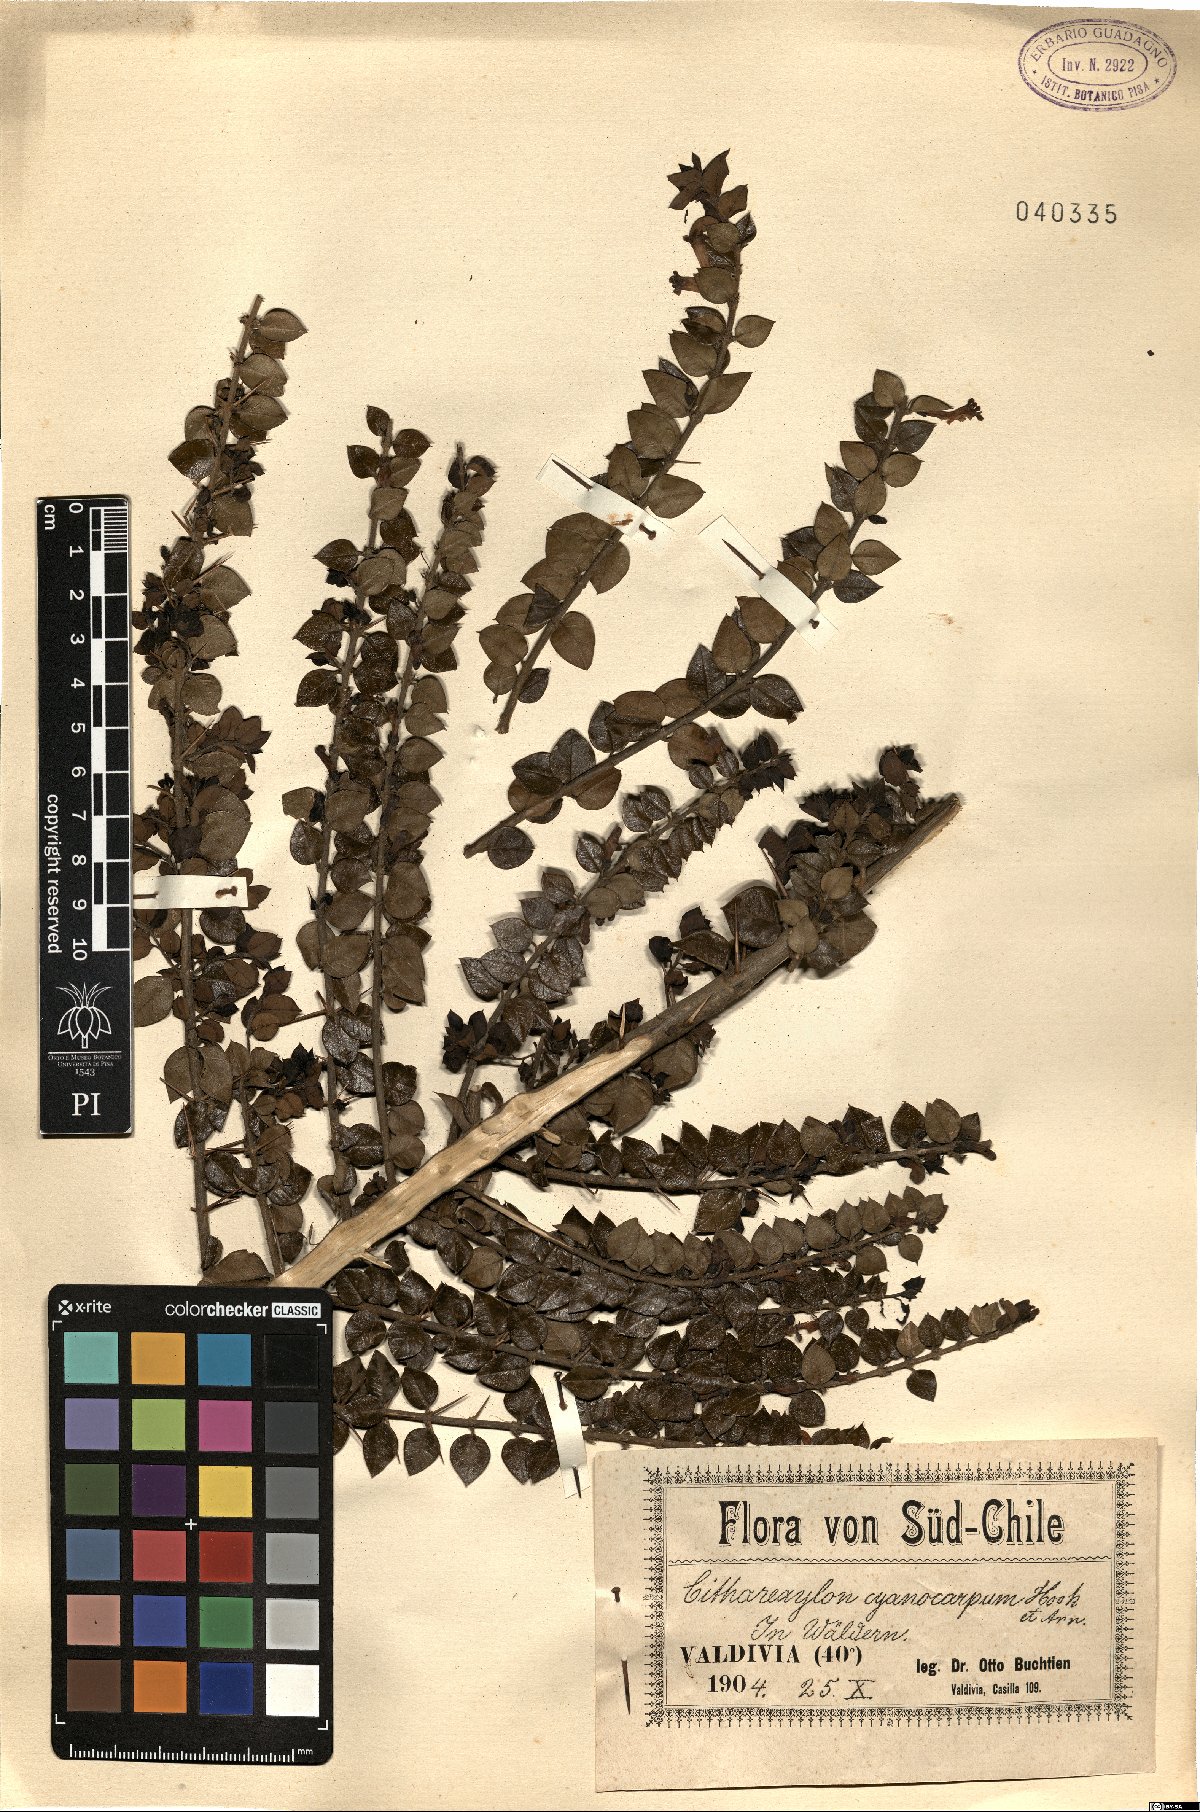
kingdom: Plantae
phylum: Tracheophyta
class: Magnoliopsida
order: Lamiales
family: Verbenaceae
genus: Rhaphithamnus
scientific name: Rhaphithamnus spinosus
